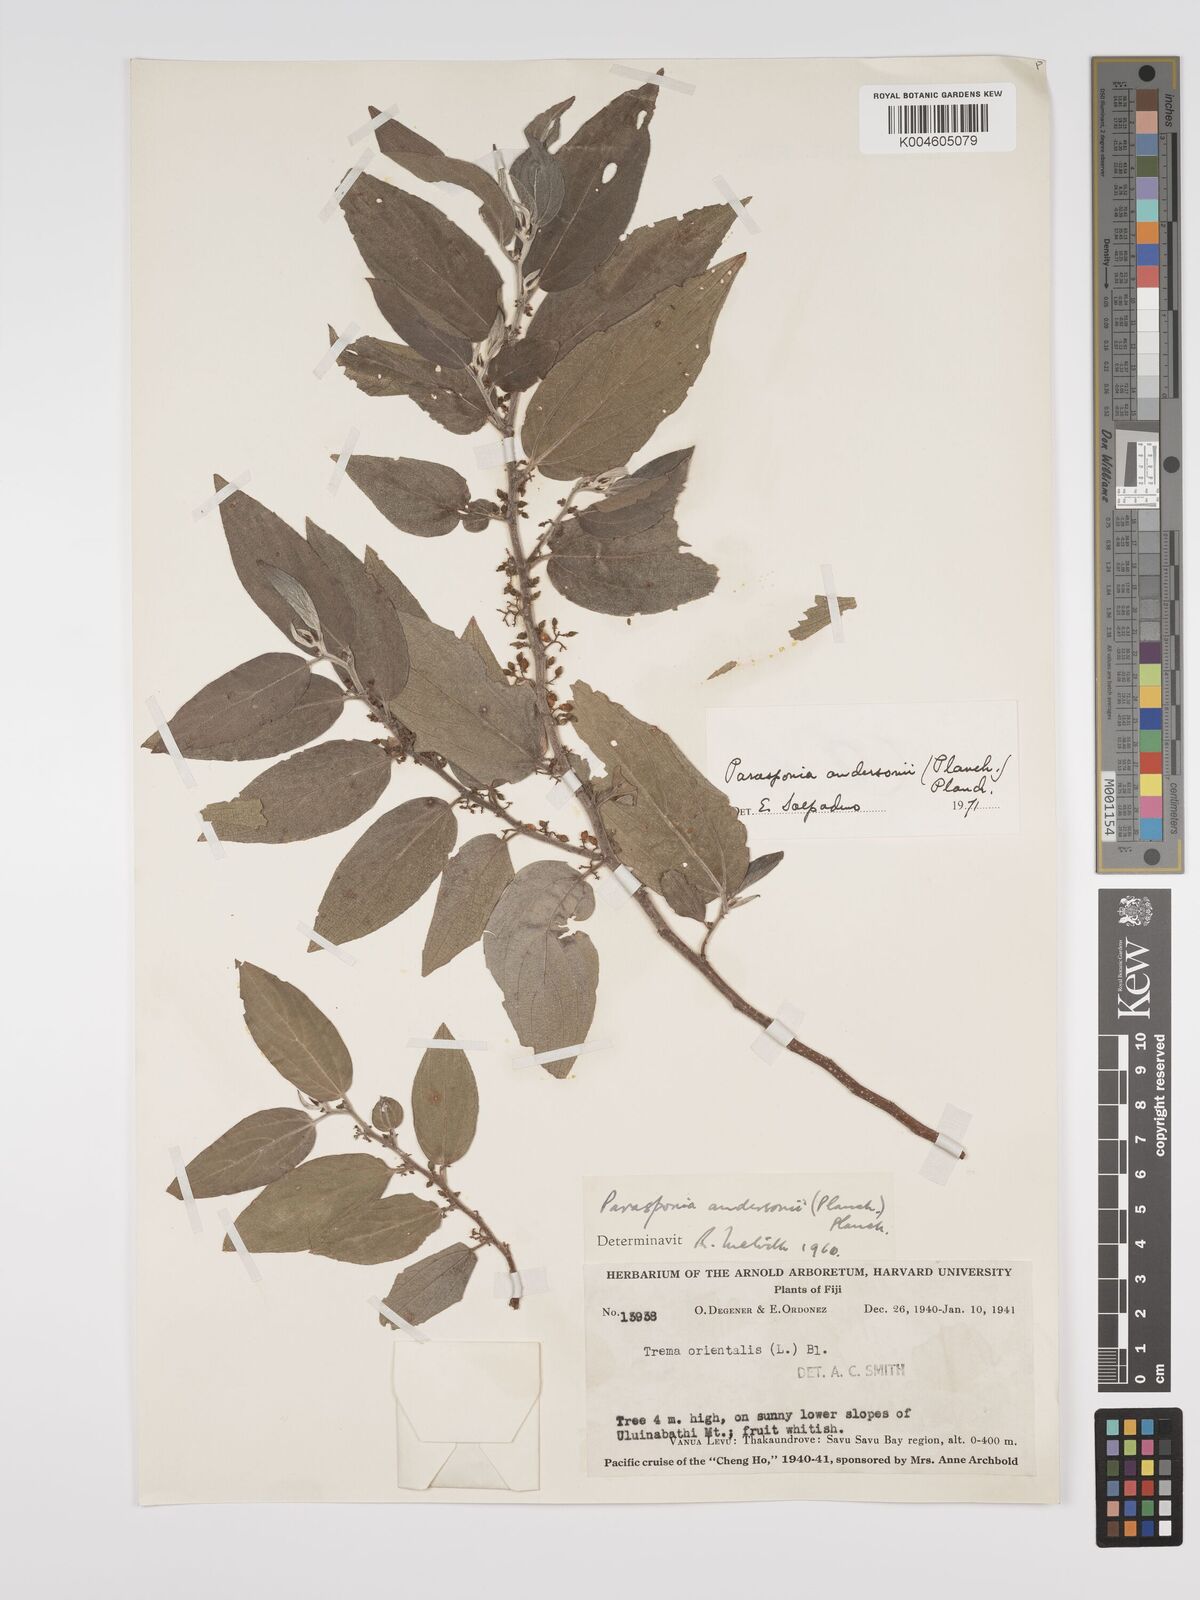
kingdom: Plantae
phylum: Tracheophyta
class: Magnoliopsida
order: Rosales
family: Cannabaceae
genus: Trema
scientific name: Trema andersonii
